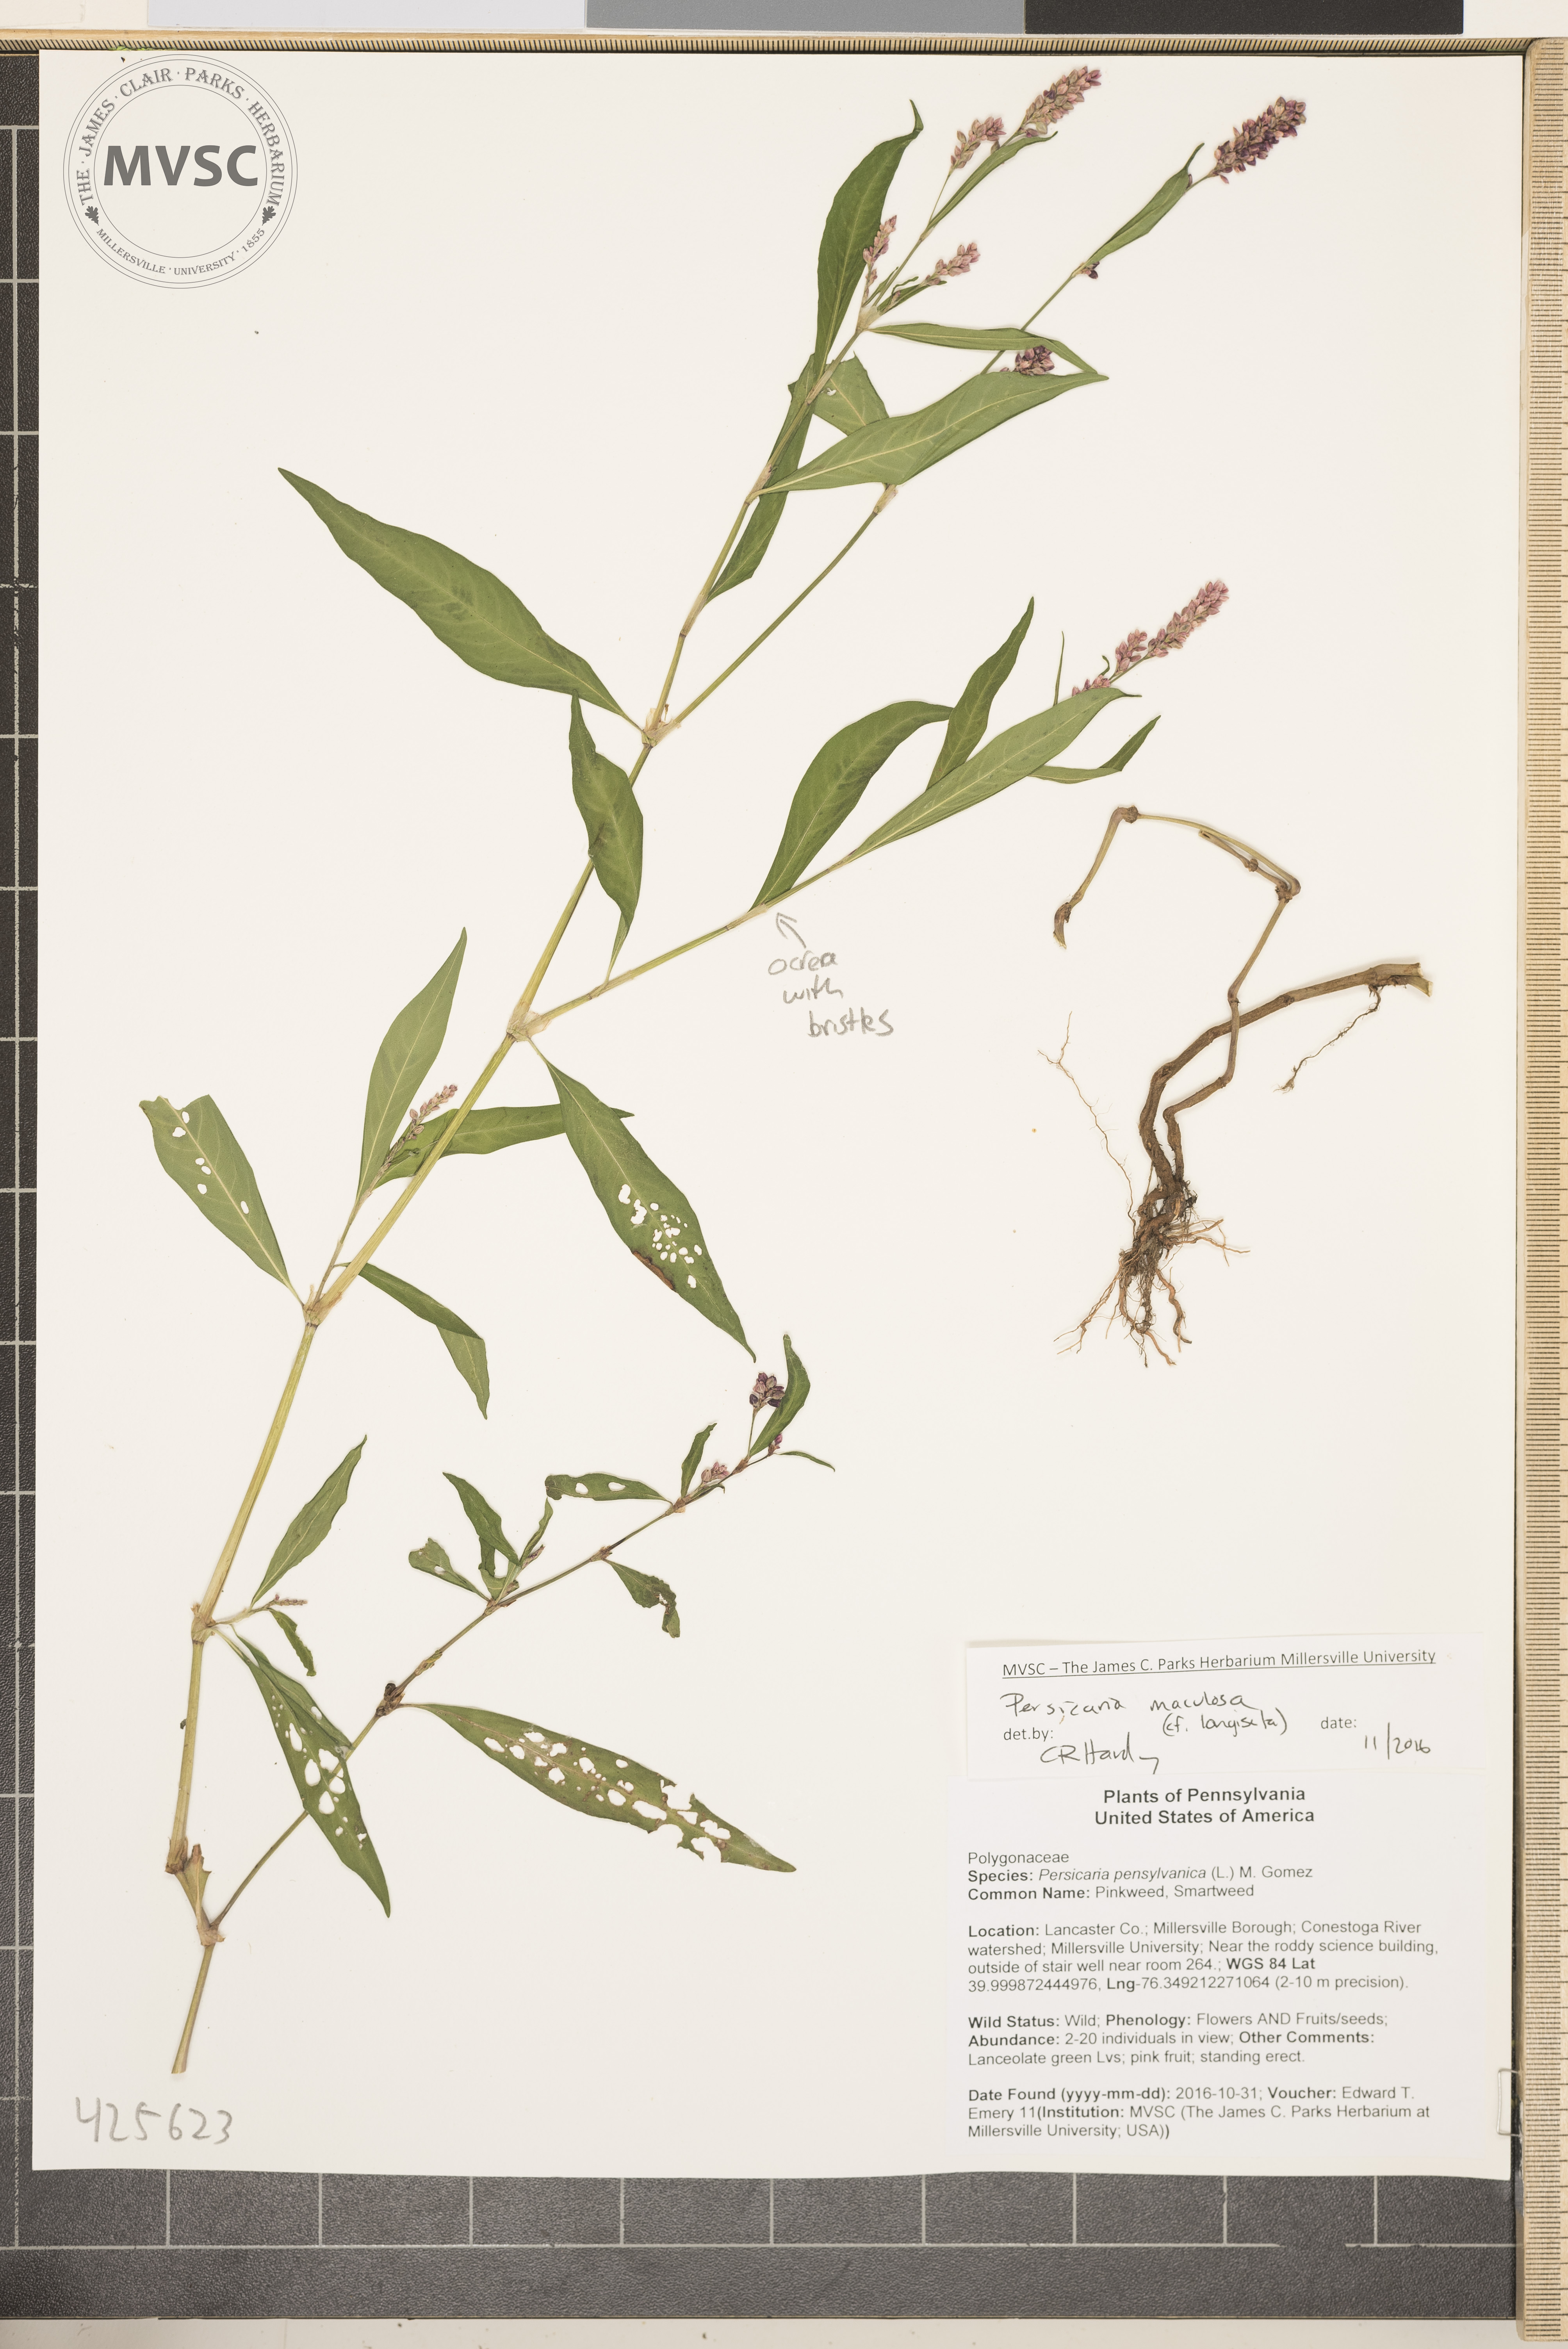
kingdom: Plantae
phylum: Tracheophyta
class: Magnoliopsida
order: Caryophyllales
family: Polygonaceae
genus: Persicaria
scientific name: Persicaria maculosa
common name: Smartweed
